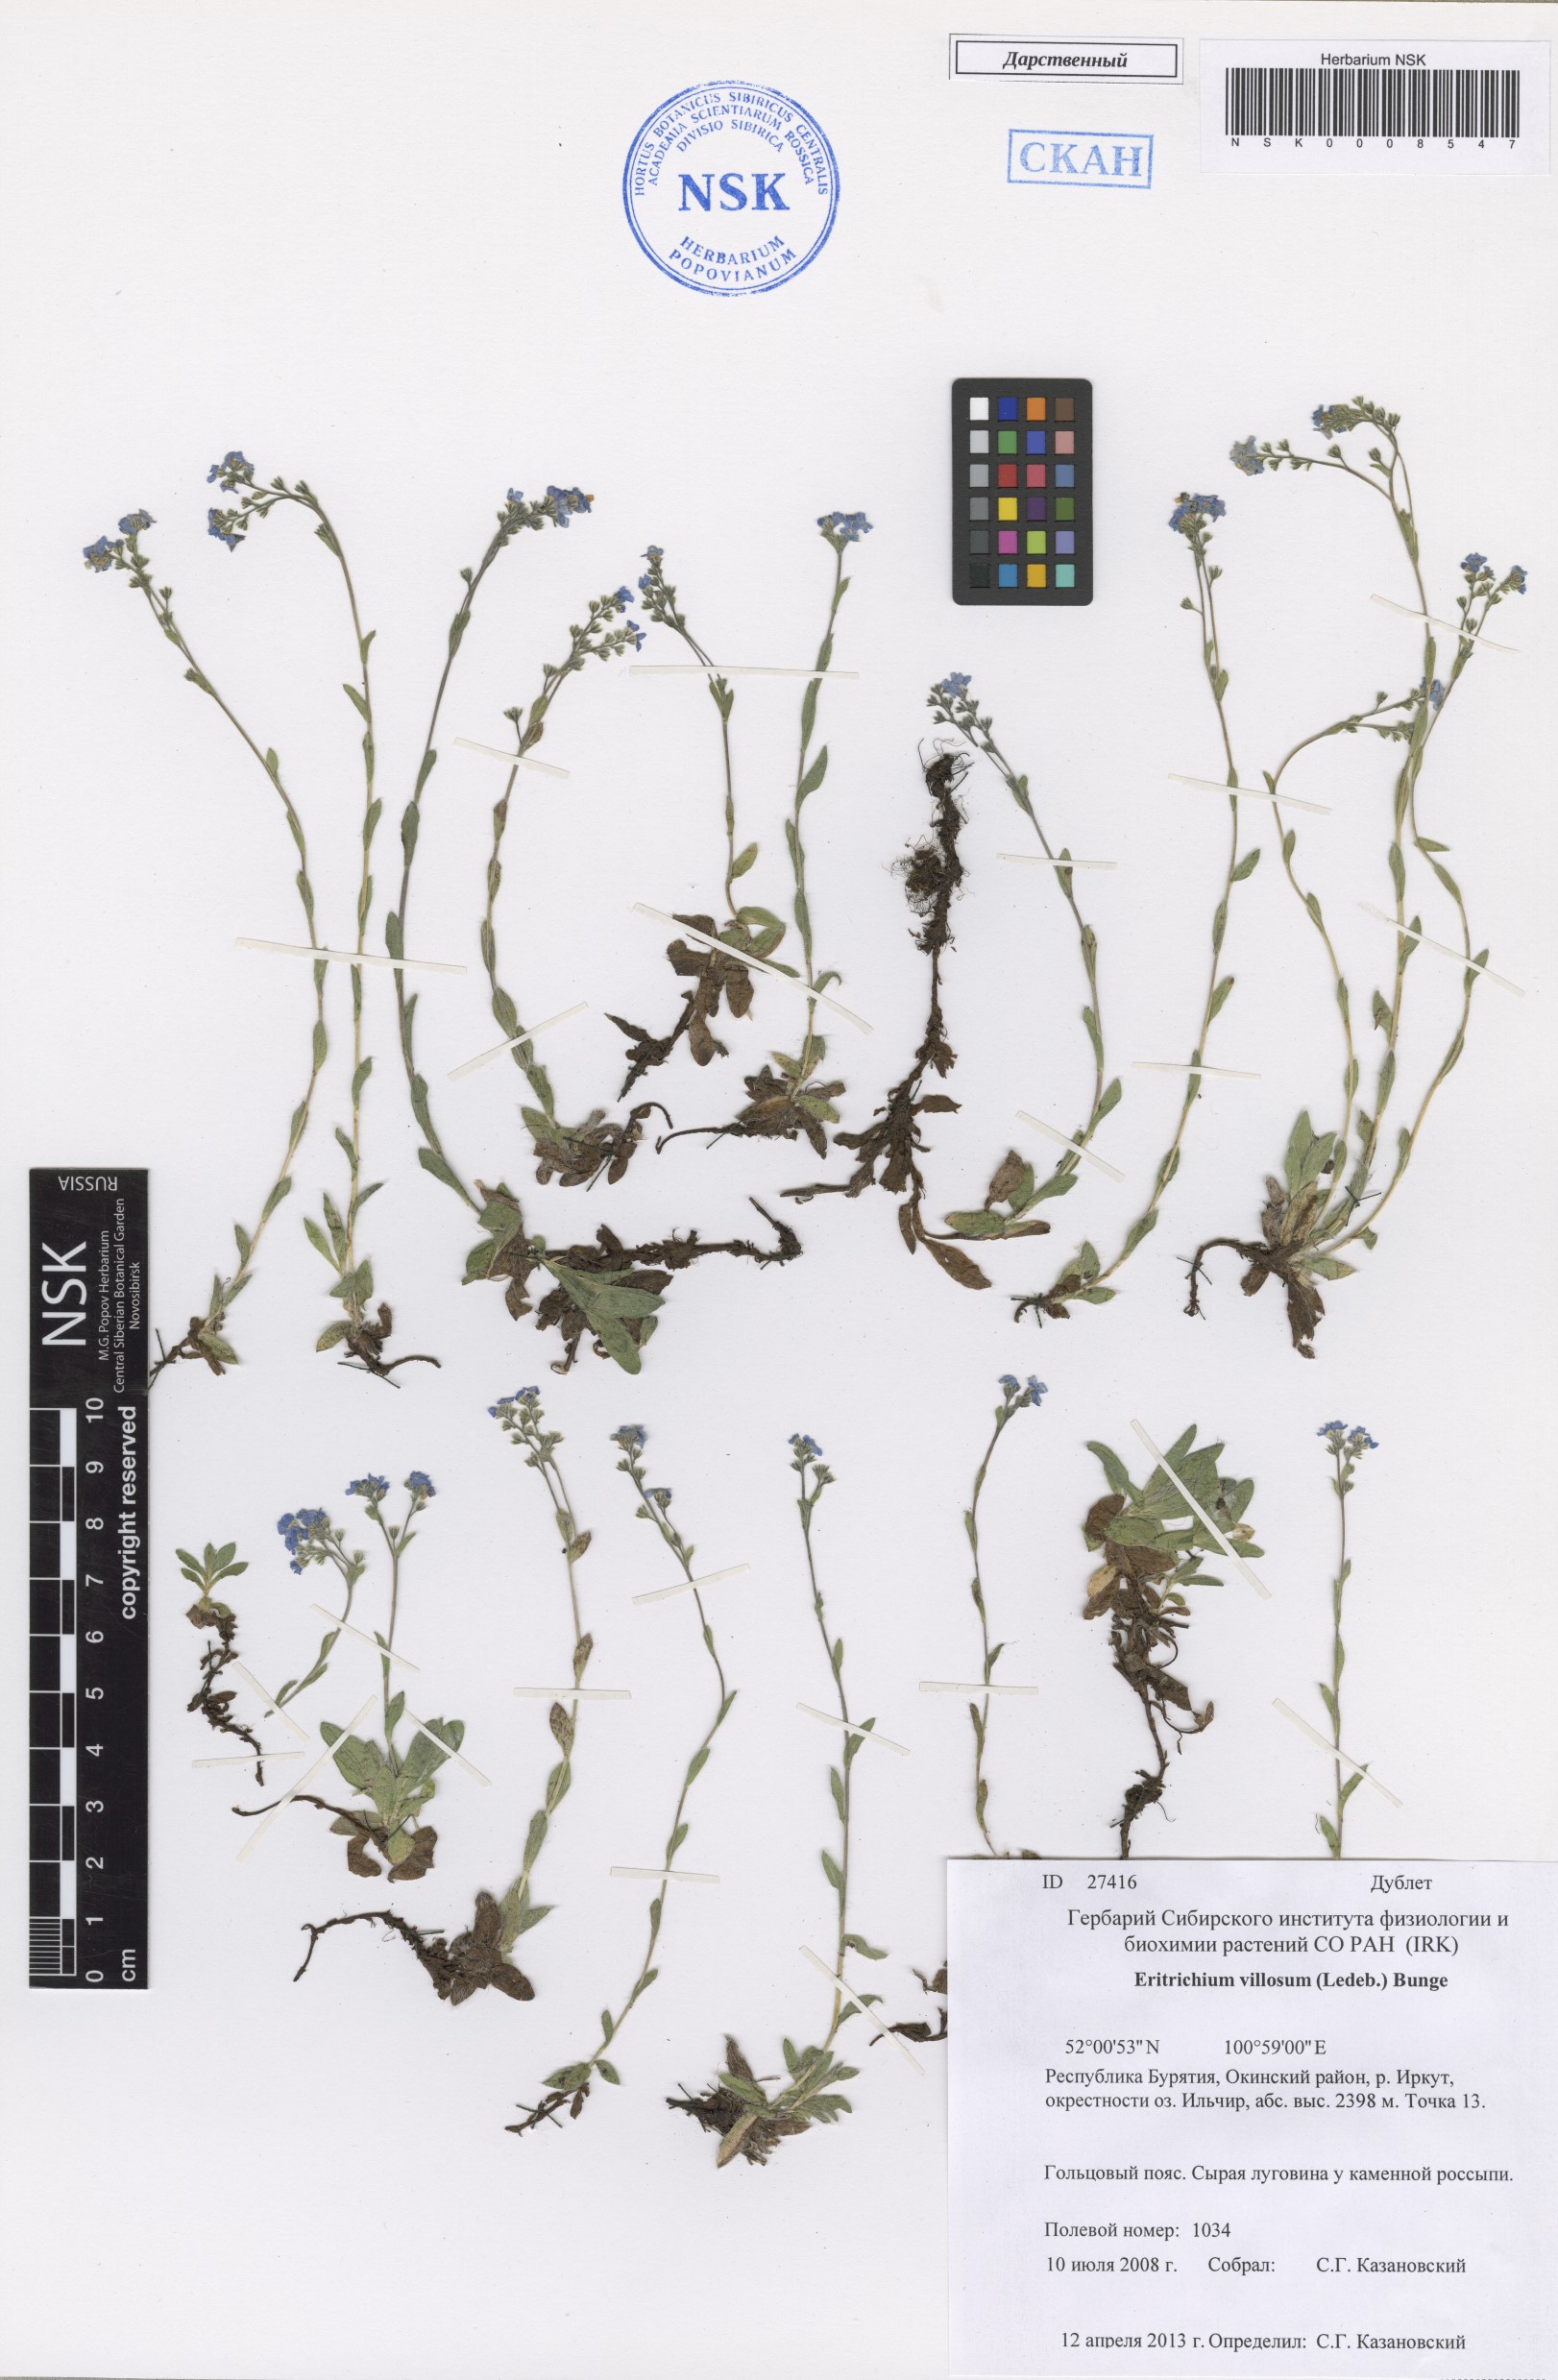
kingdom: Plantae
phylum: Tracheophyta
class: Magnoliopsida
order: Boraginales
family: Boraginaceae
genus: Eritrichium
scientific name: Eritrichium villosum
